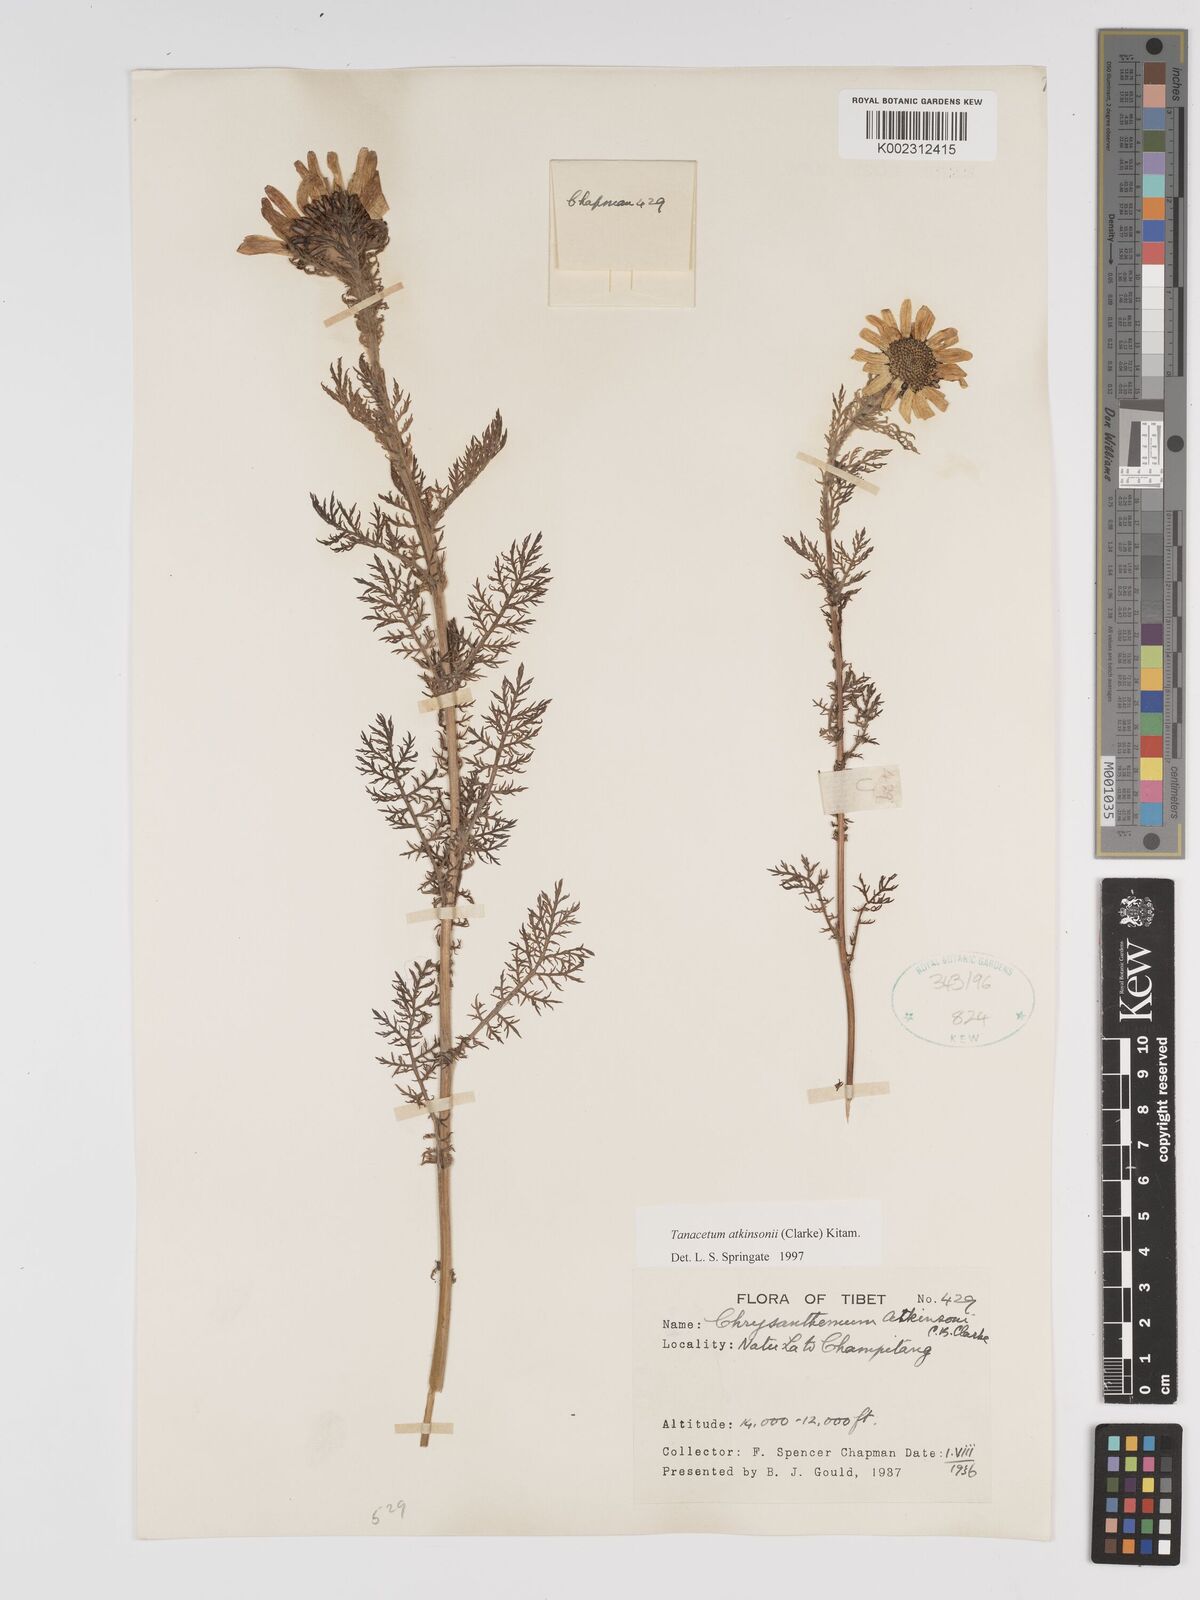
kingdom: Plantae
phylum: Tracheophyta
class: Magnoliopsida
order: Asterales
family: Asteraceae
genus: Tanacetum
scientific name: Tanacetum atkinsonii
